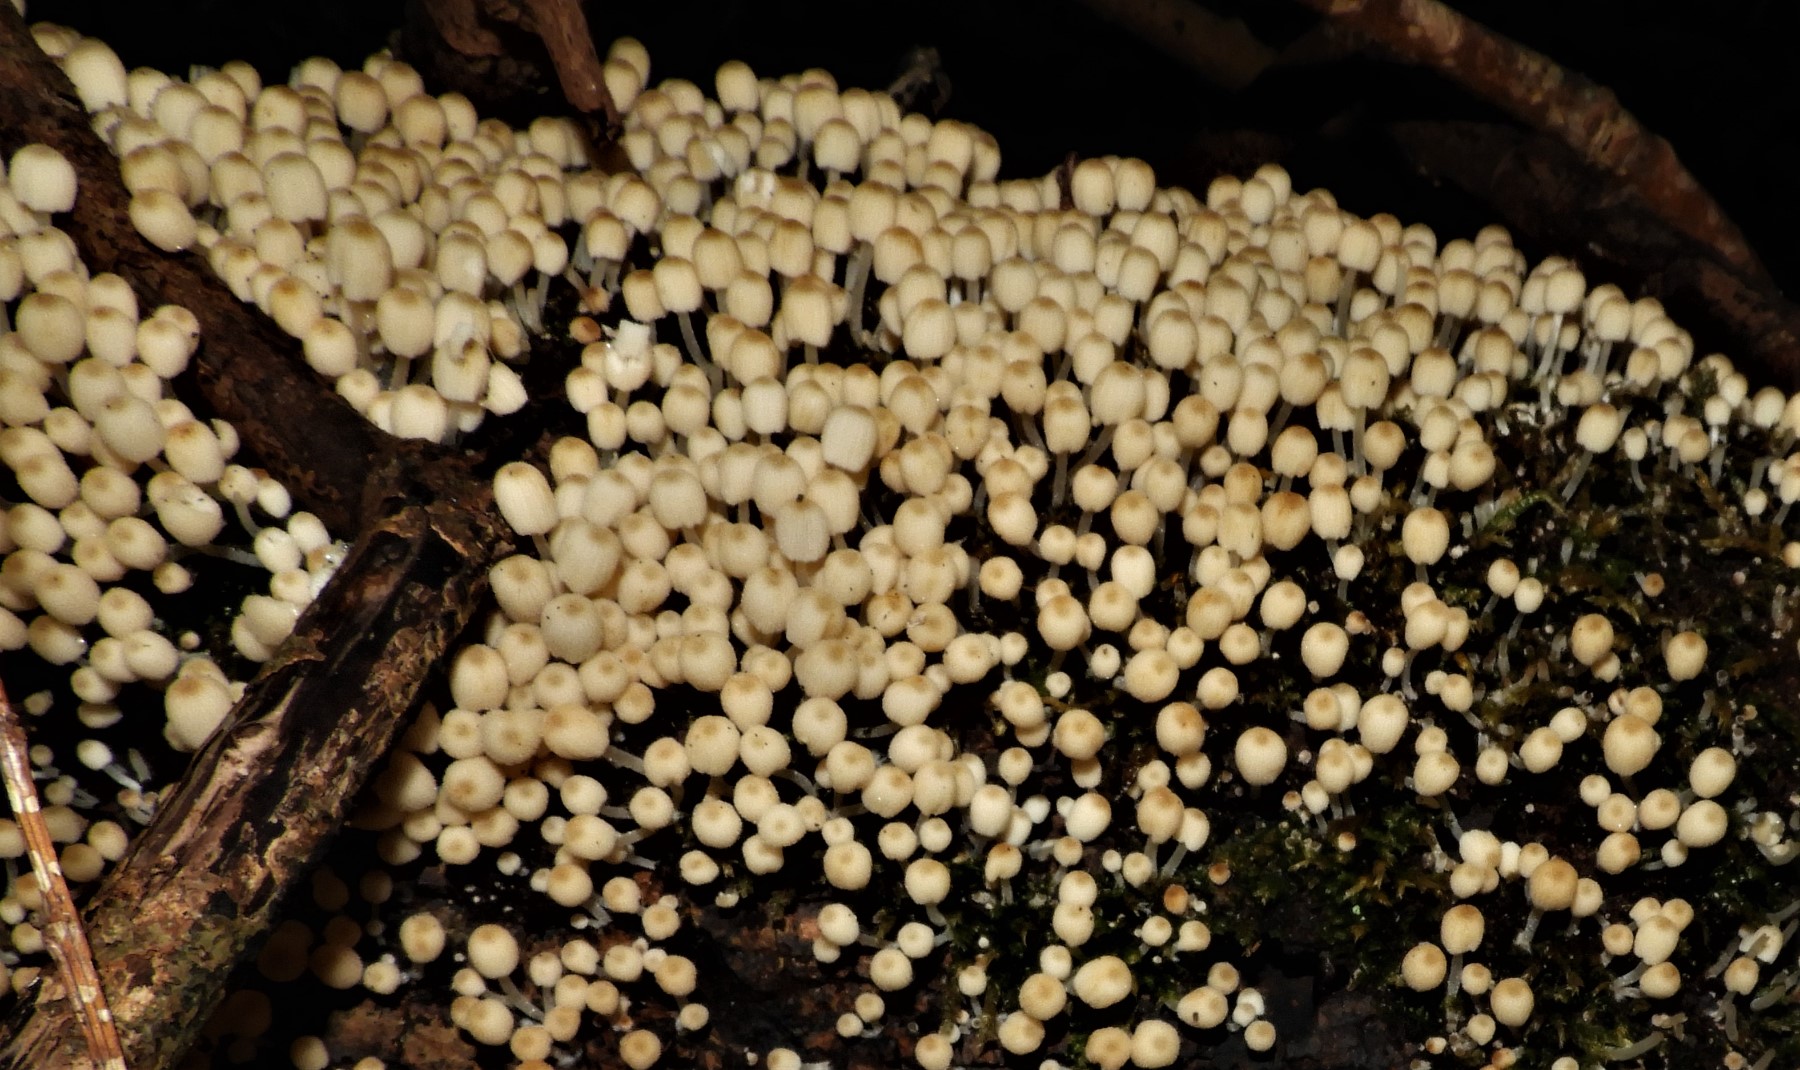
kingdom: Fungi
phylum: Basidiomycota
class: Agaricomycetes
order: Agaricales
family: Psathyrellaceae
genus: Coprinellus
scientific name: Coprinellus disseminatus
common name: bredsået blækhat
